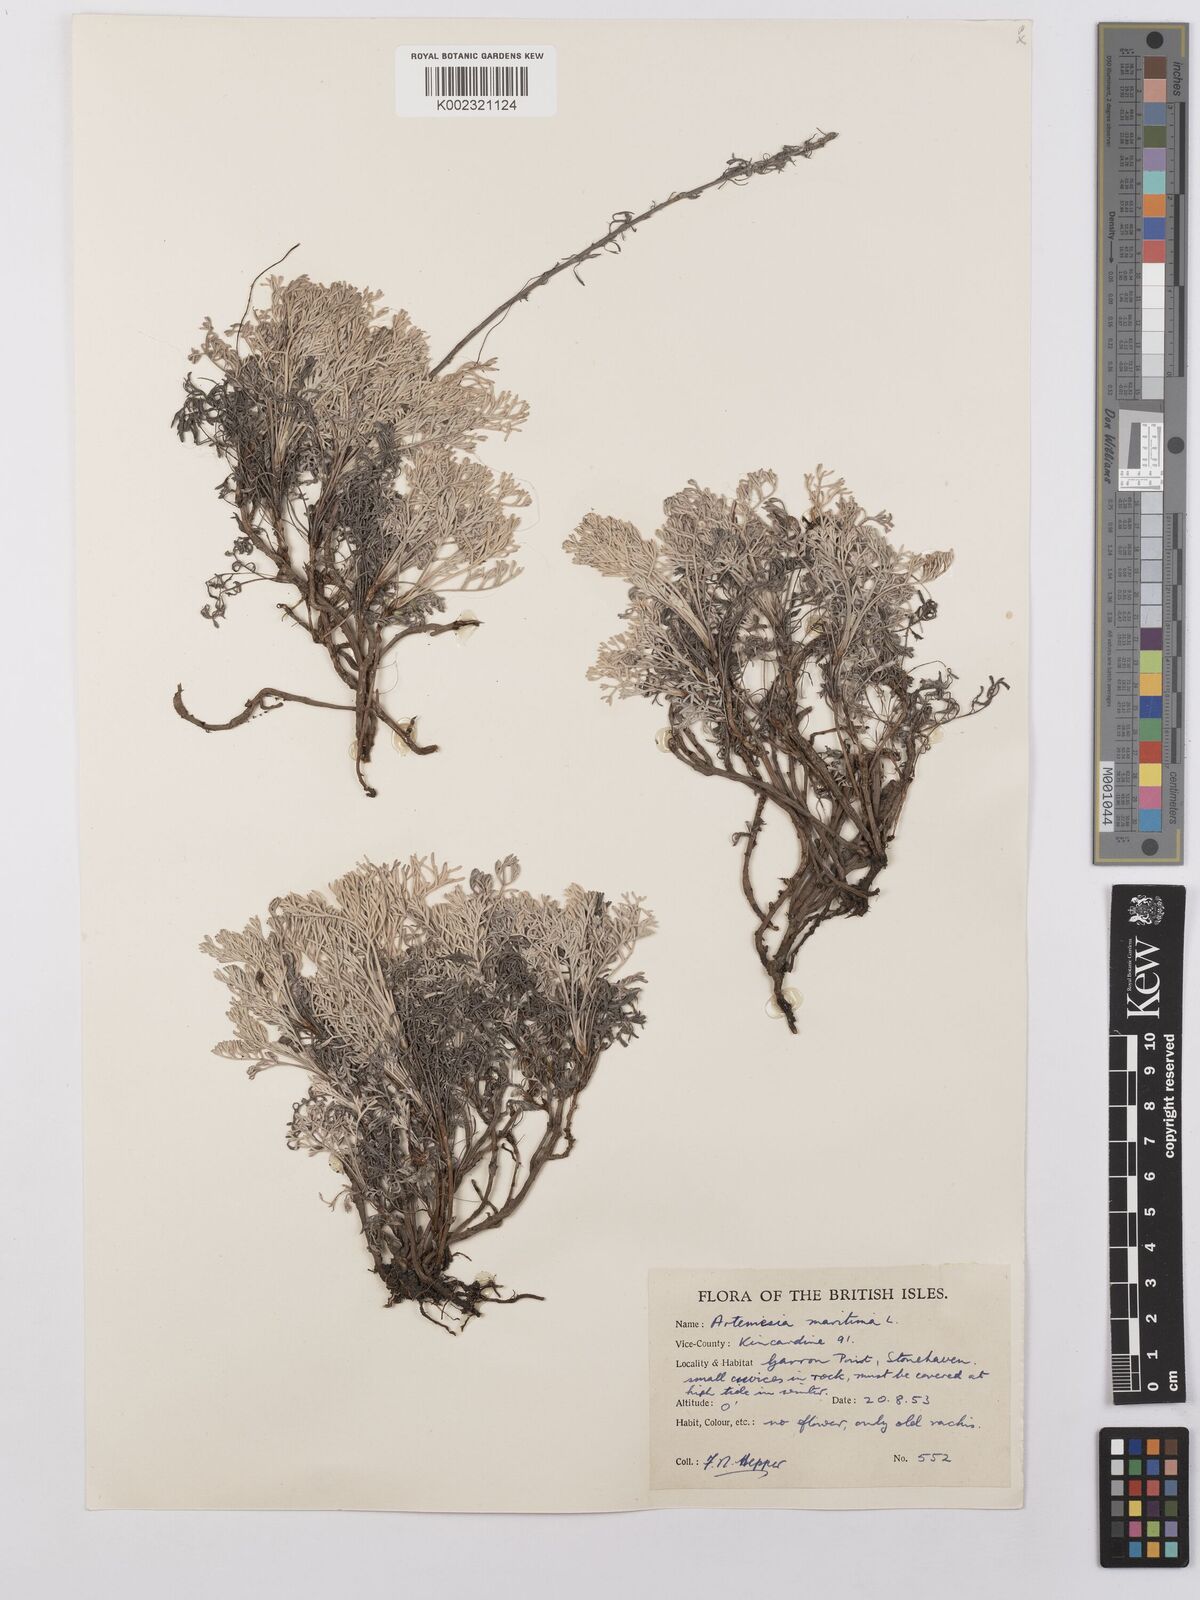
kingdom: Plantae
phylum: Tracheophyta
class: Magnoliopsida
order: Asterales
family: Asteraceae
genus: Artemisia
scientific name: Artemisia maritima
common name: Wormseed
